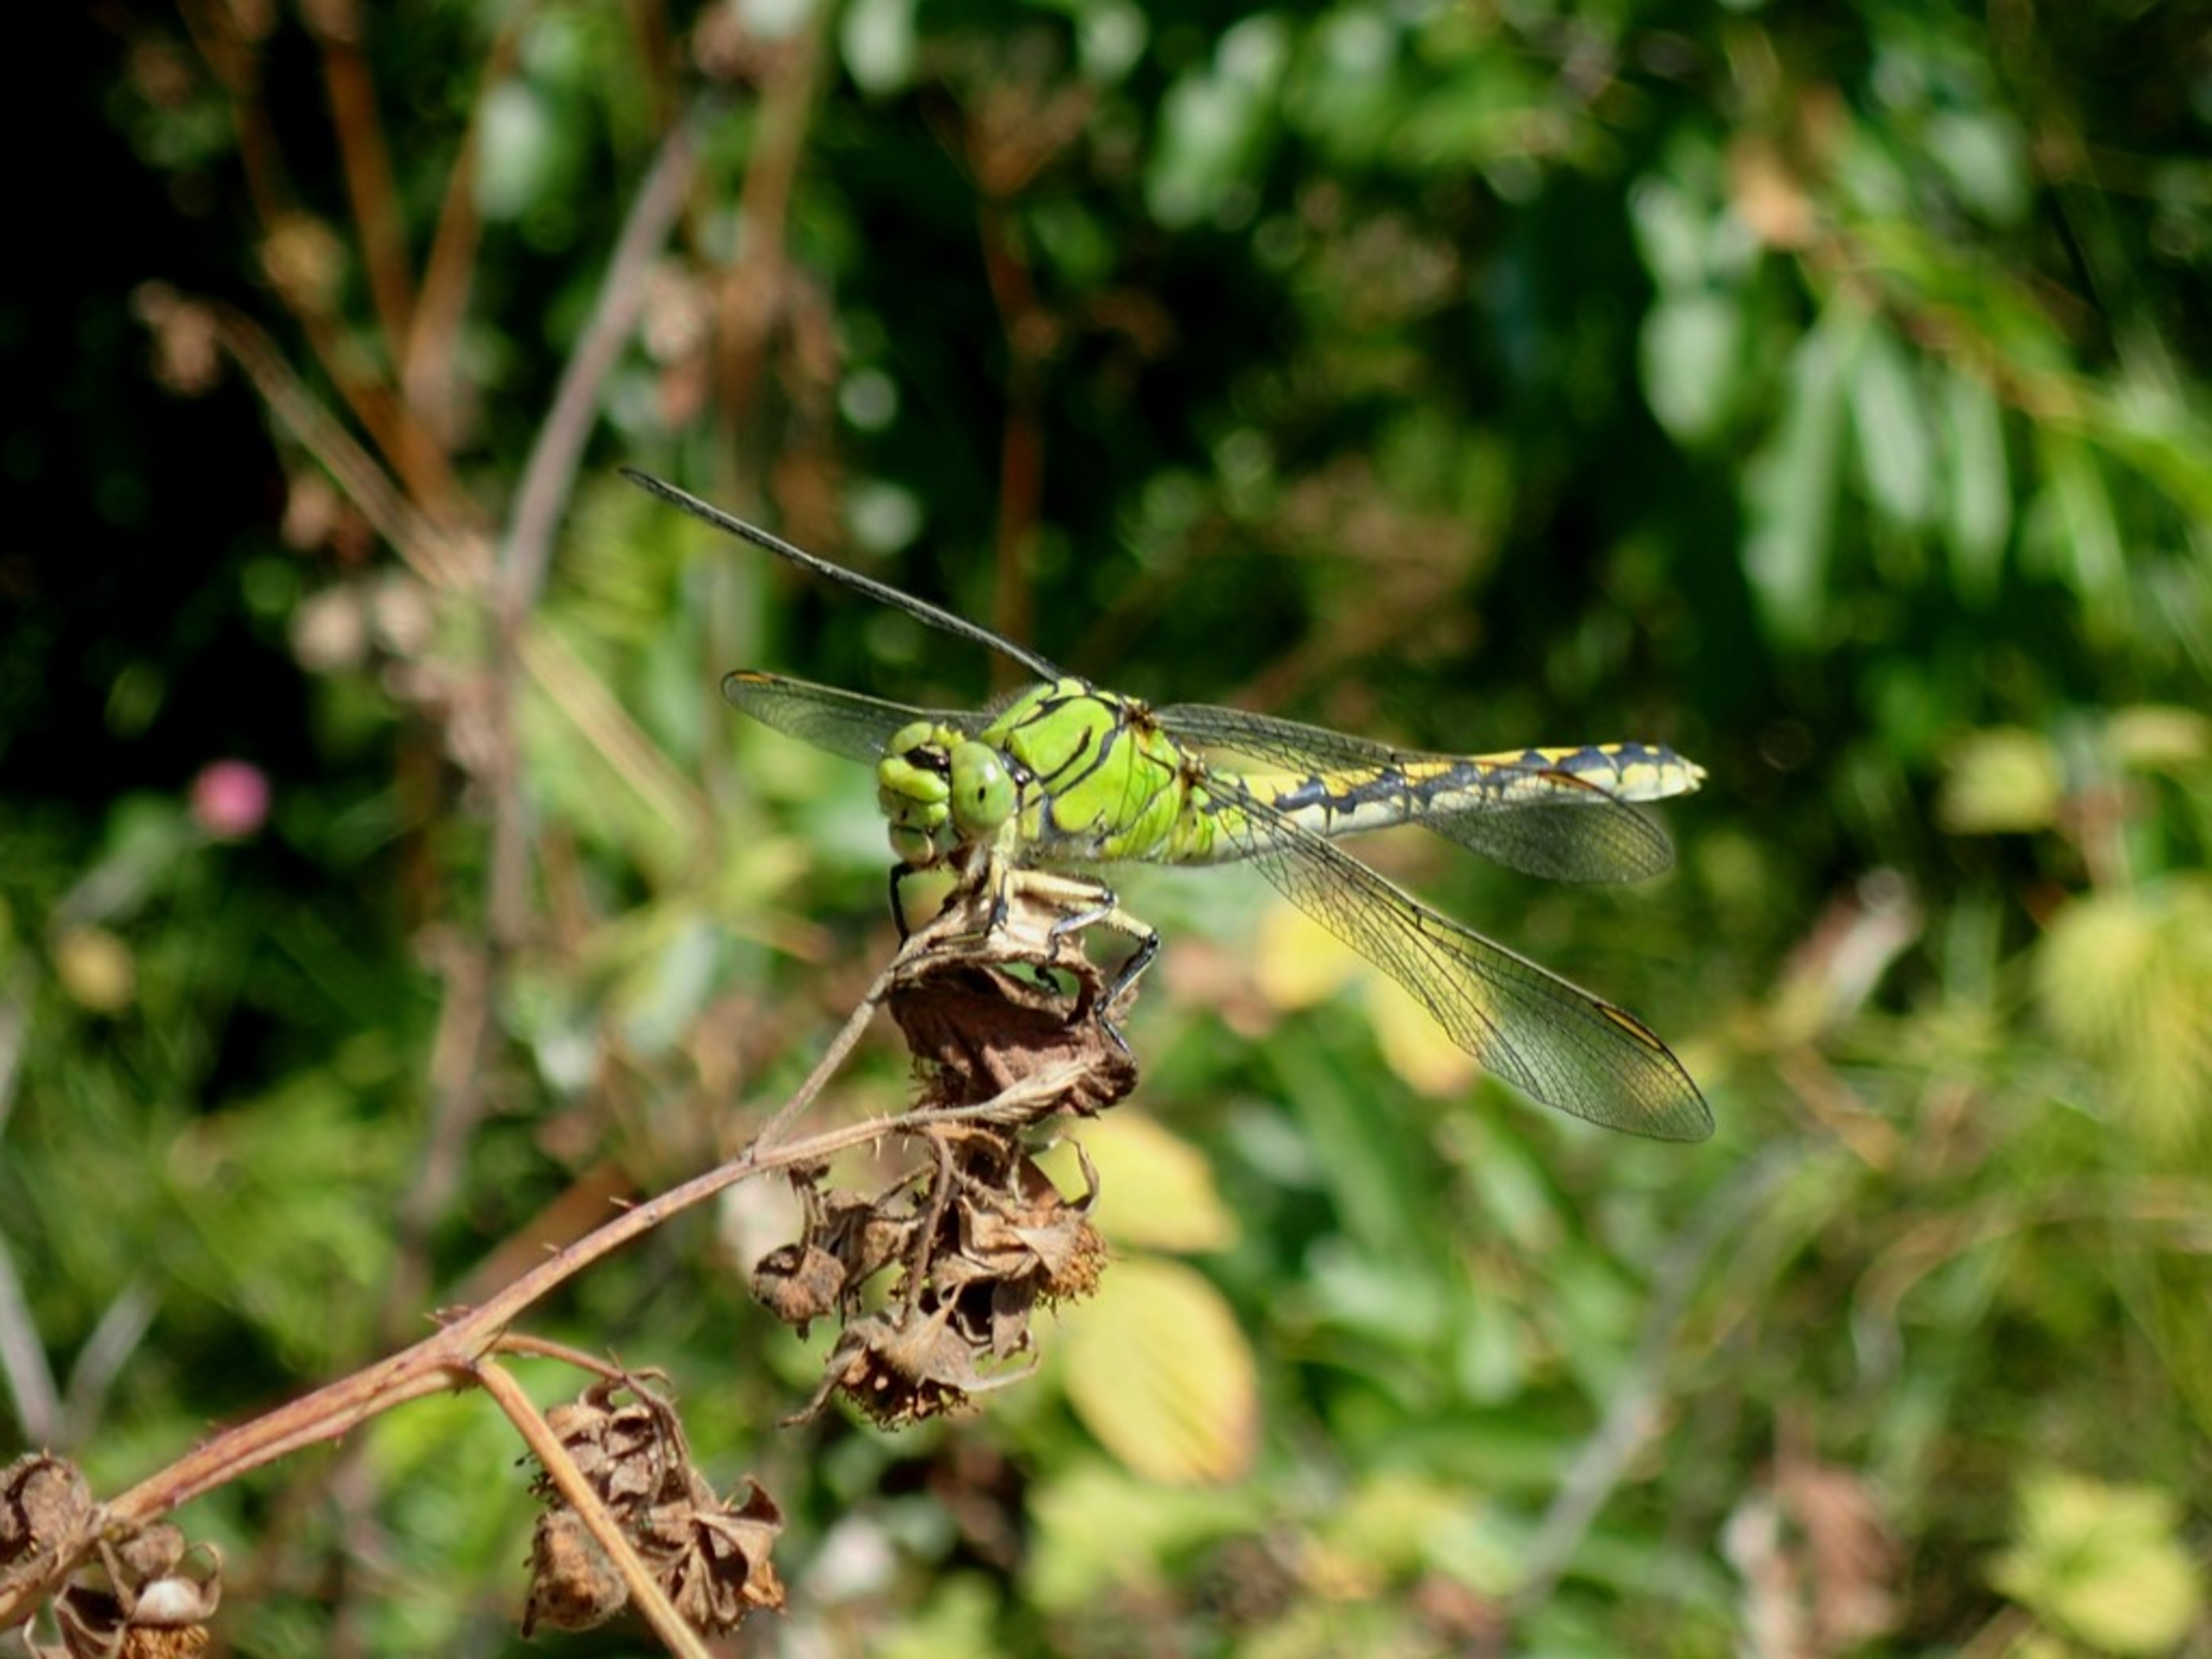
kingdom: Animalia
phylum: Arthropoda
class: Insecta
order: Odonata
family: Gomphidae
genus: Ophiogomphus
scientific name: Ophiogomphus cecilia
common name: Grøn kølleguldsmed
